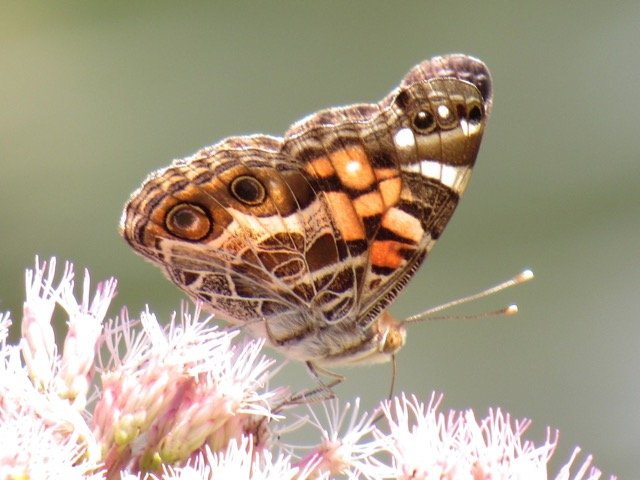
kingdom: Animalia
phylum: Arthropoda
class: Insecta
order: Lepidoptera
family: Nymphalidae
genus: Vanessa
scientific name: Vanessa virginiensis
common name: American Lady
